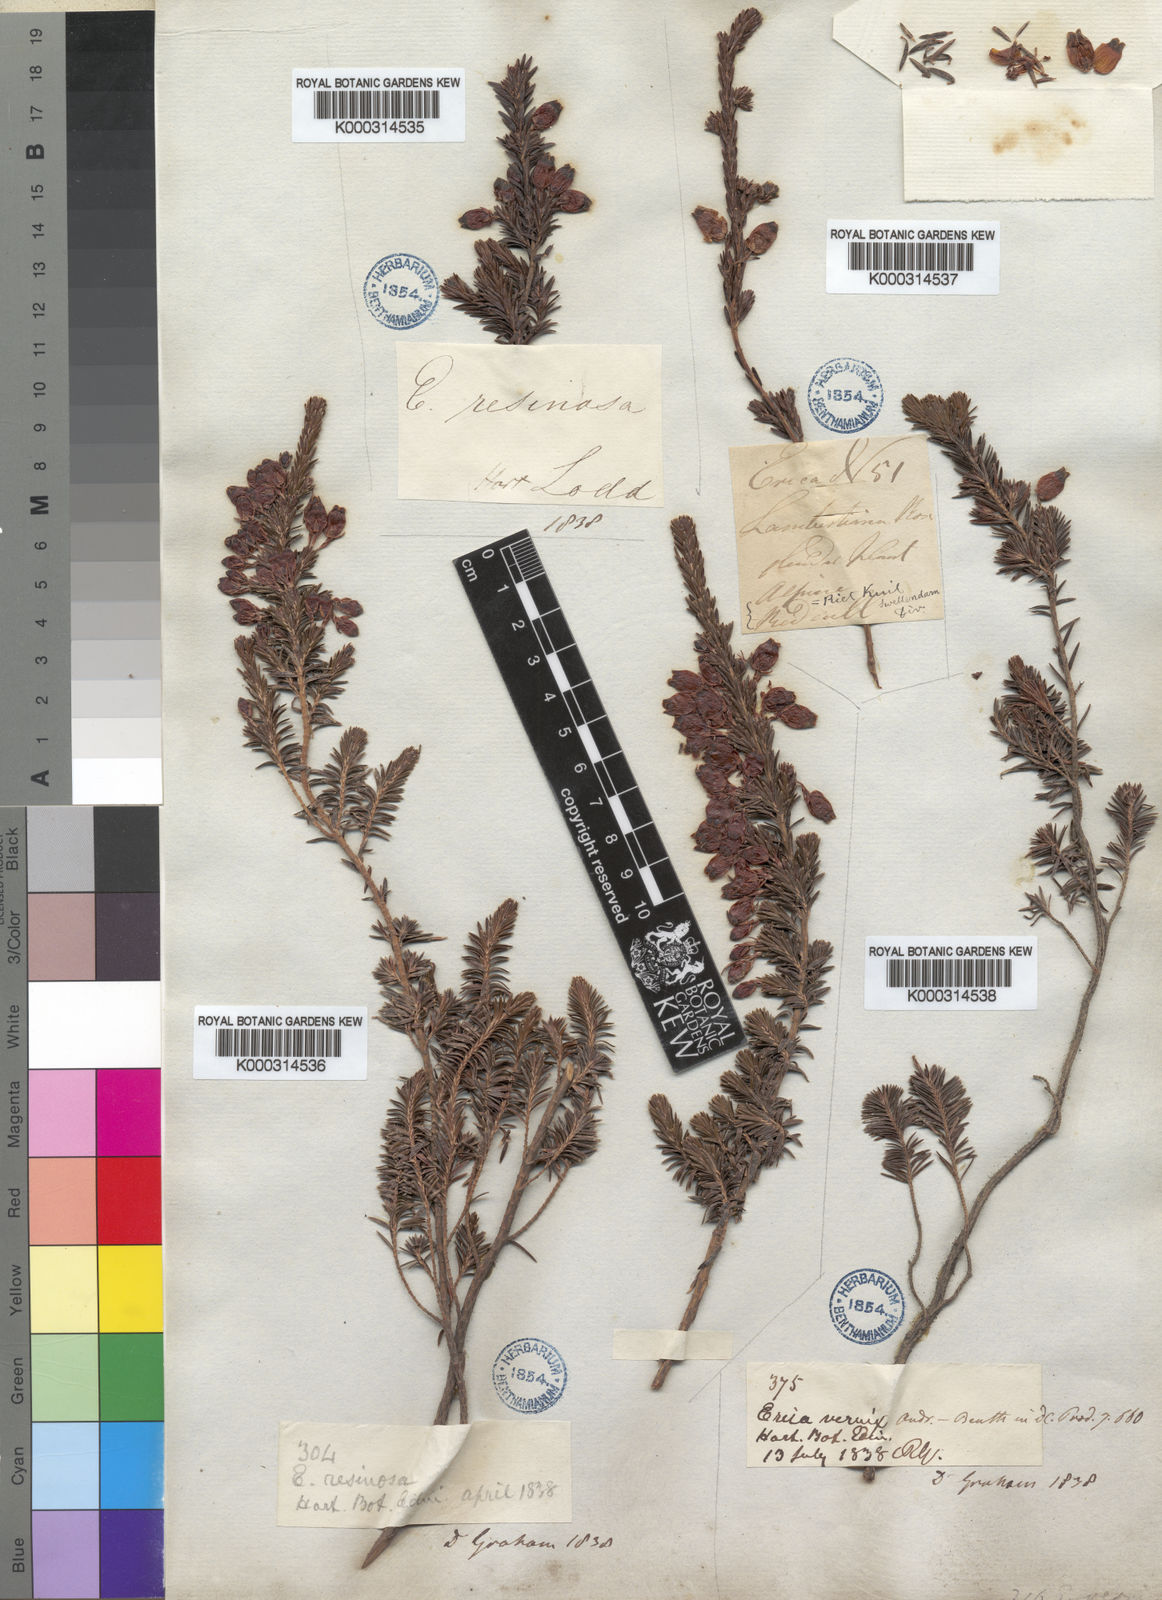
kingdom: Plantae
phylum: Tracheophyta
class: Magnoliopsida
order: Ericales
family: Ericaceae
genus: Erica
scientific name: Erica blenna
